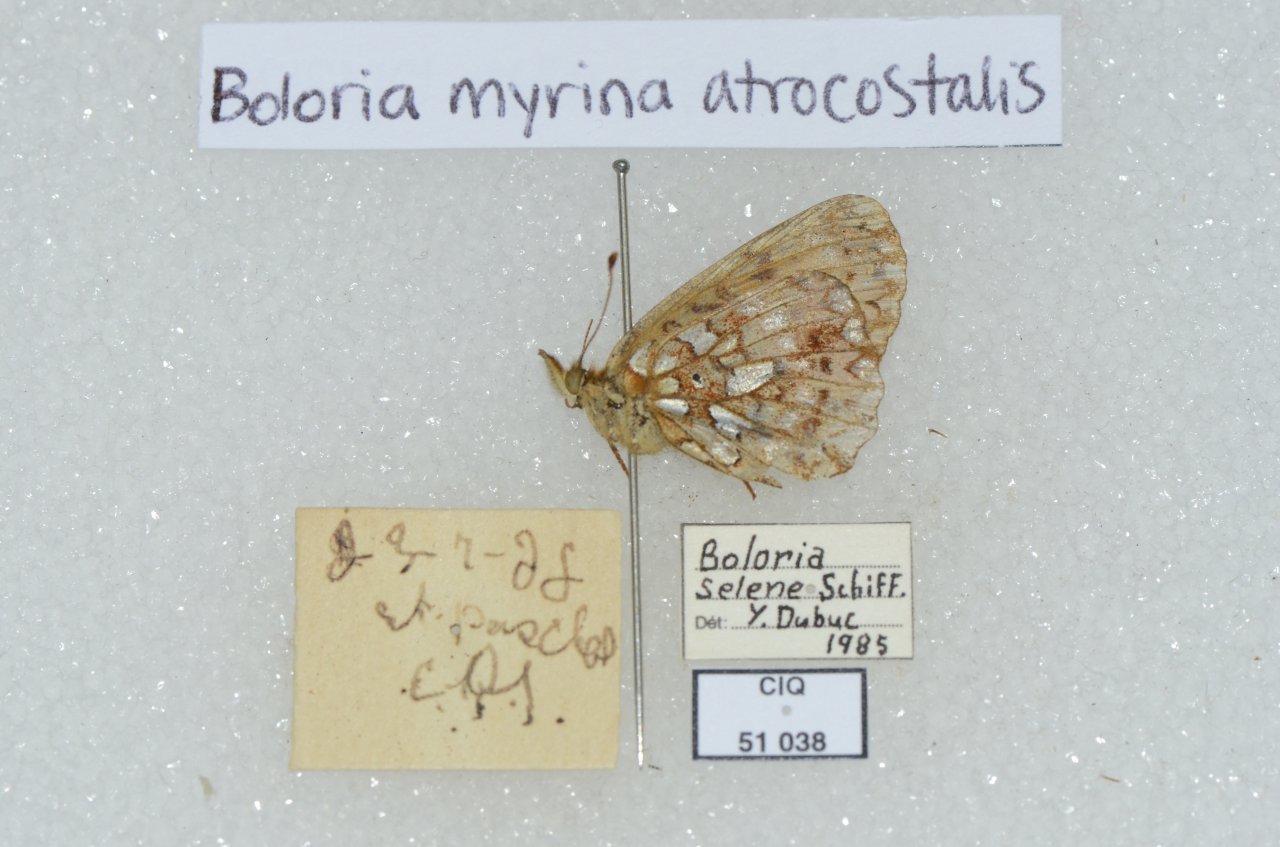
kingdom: Animalia
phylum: Arthropoda
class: Insecta
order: Lepidoptera
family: Nymphalidae
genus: Boloria
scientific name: Boloria selene
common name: Silver-bordered Fritillary
